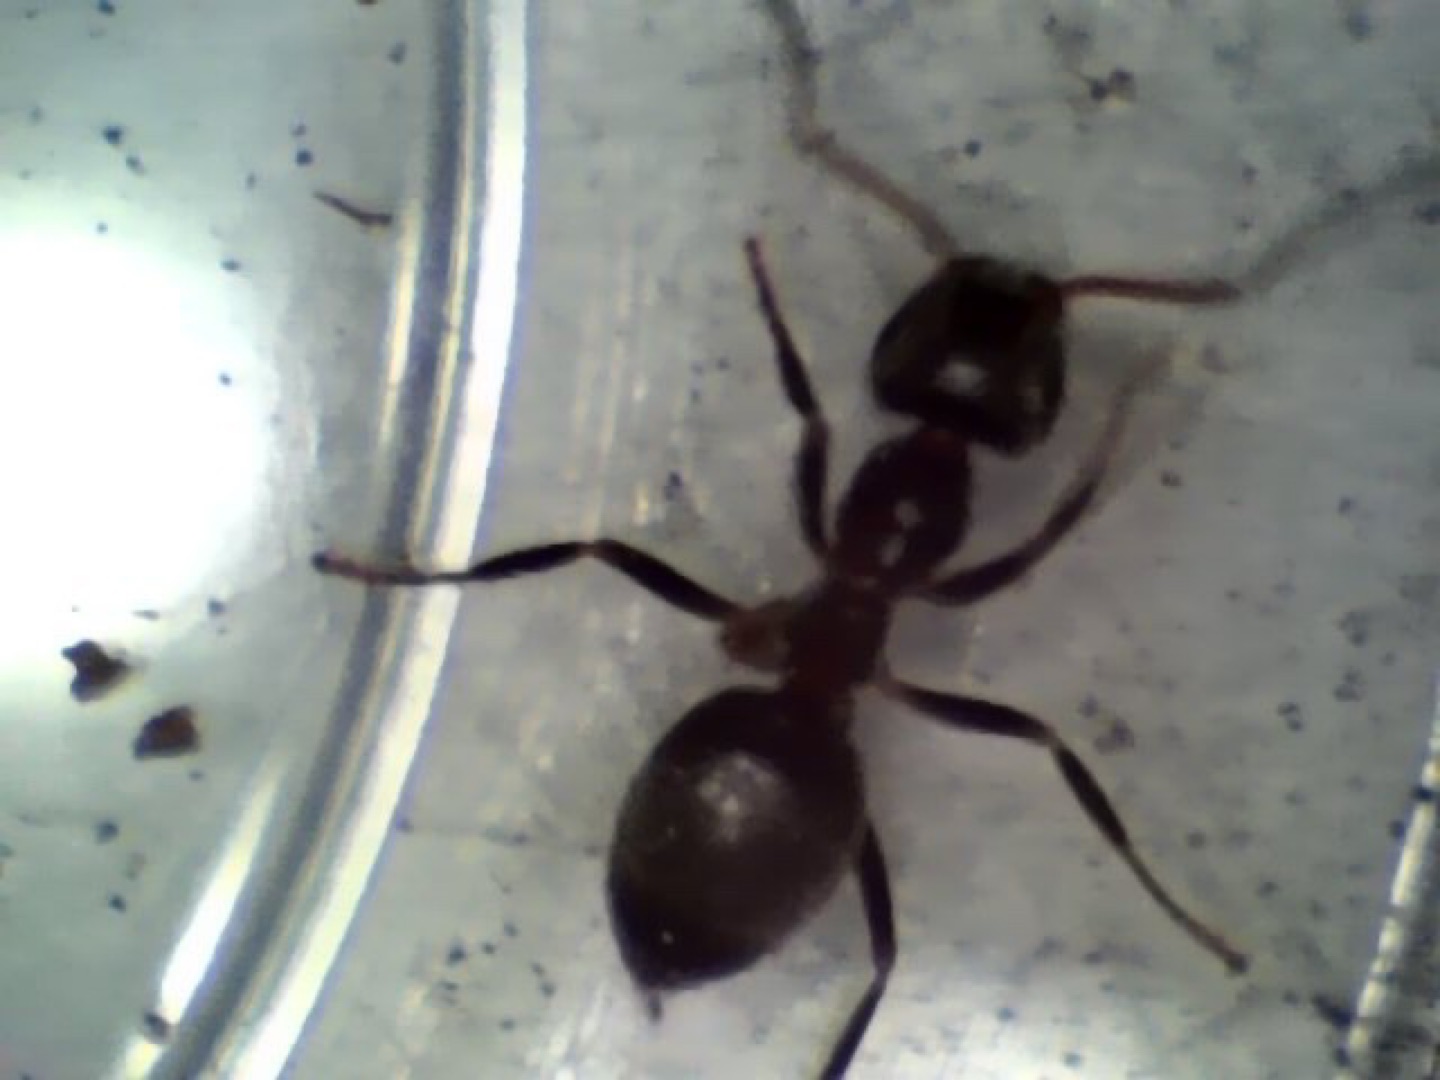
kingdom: Animalia
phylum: Arthropoda
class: Insecta
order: Hymenoptera
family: Formicidae
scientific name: Formicidae
